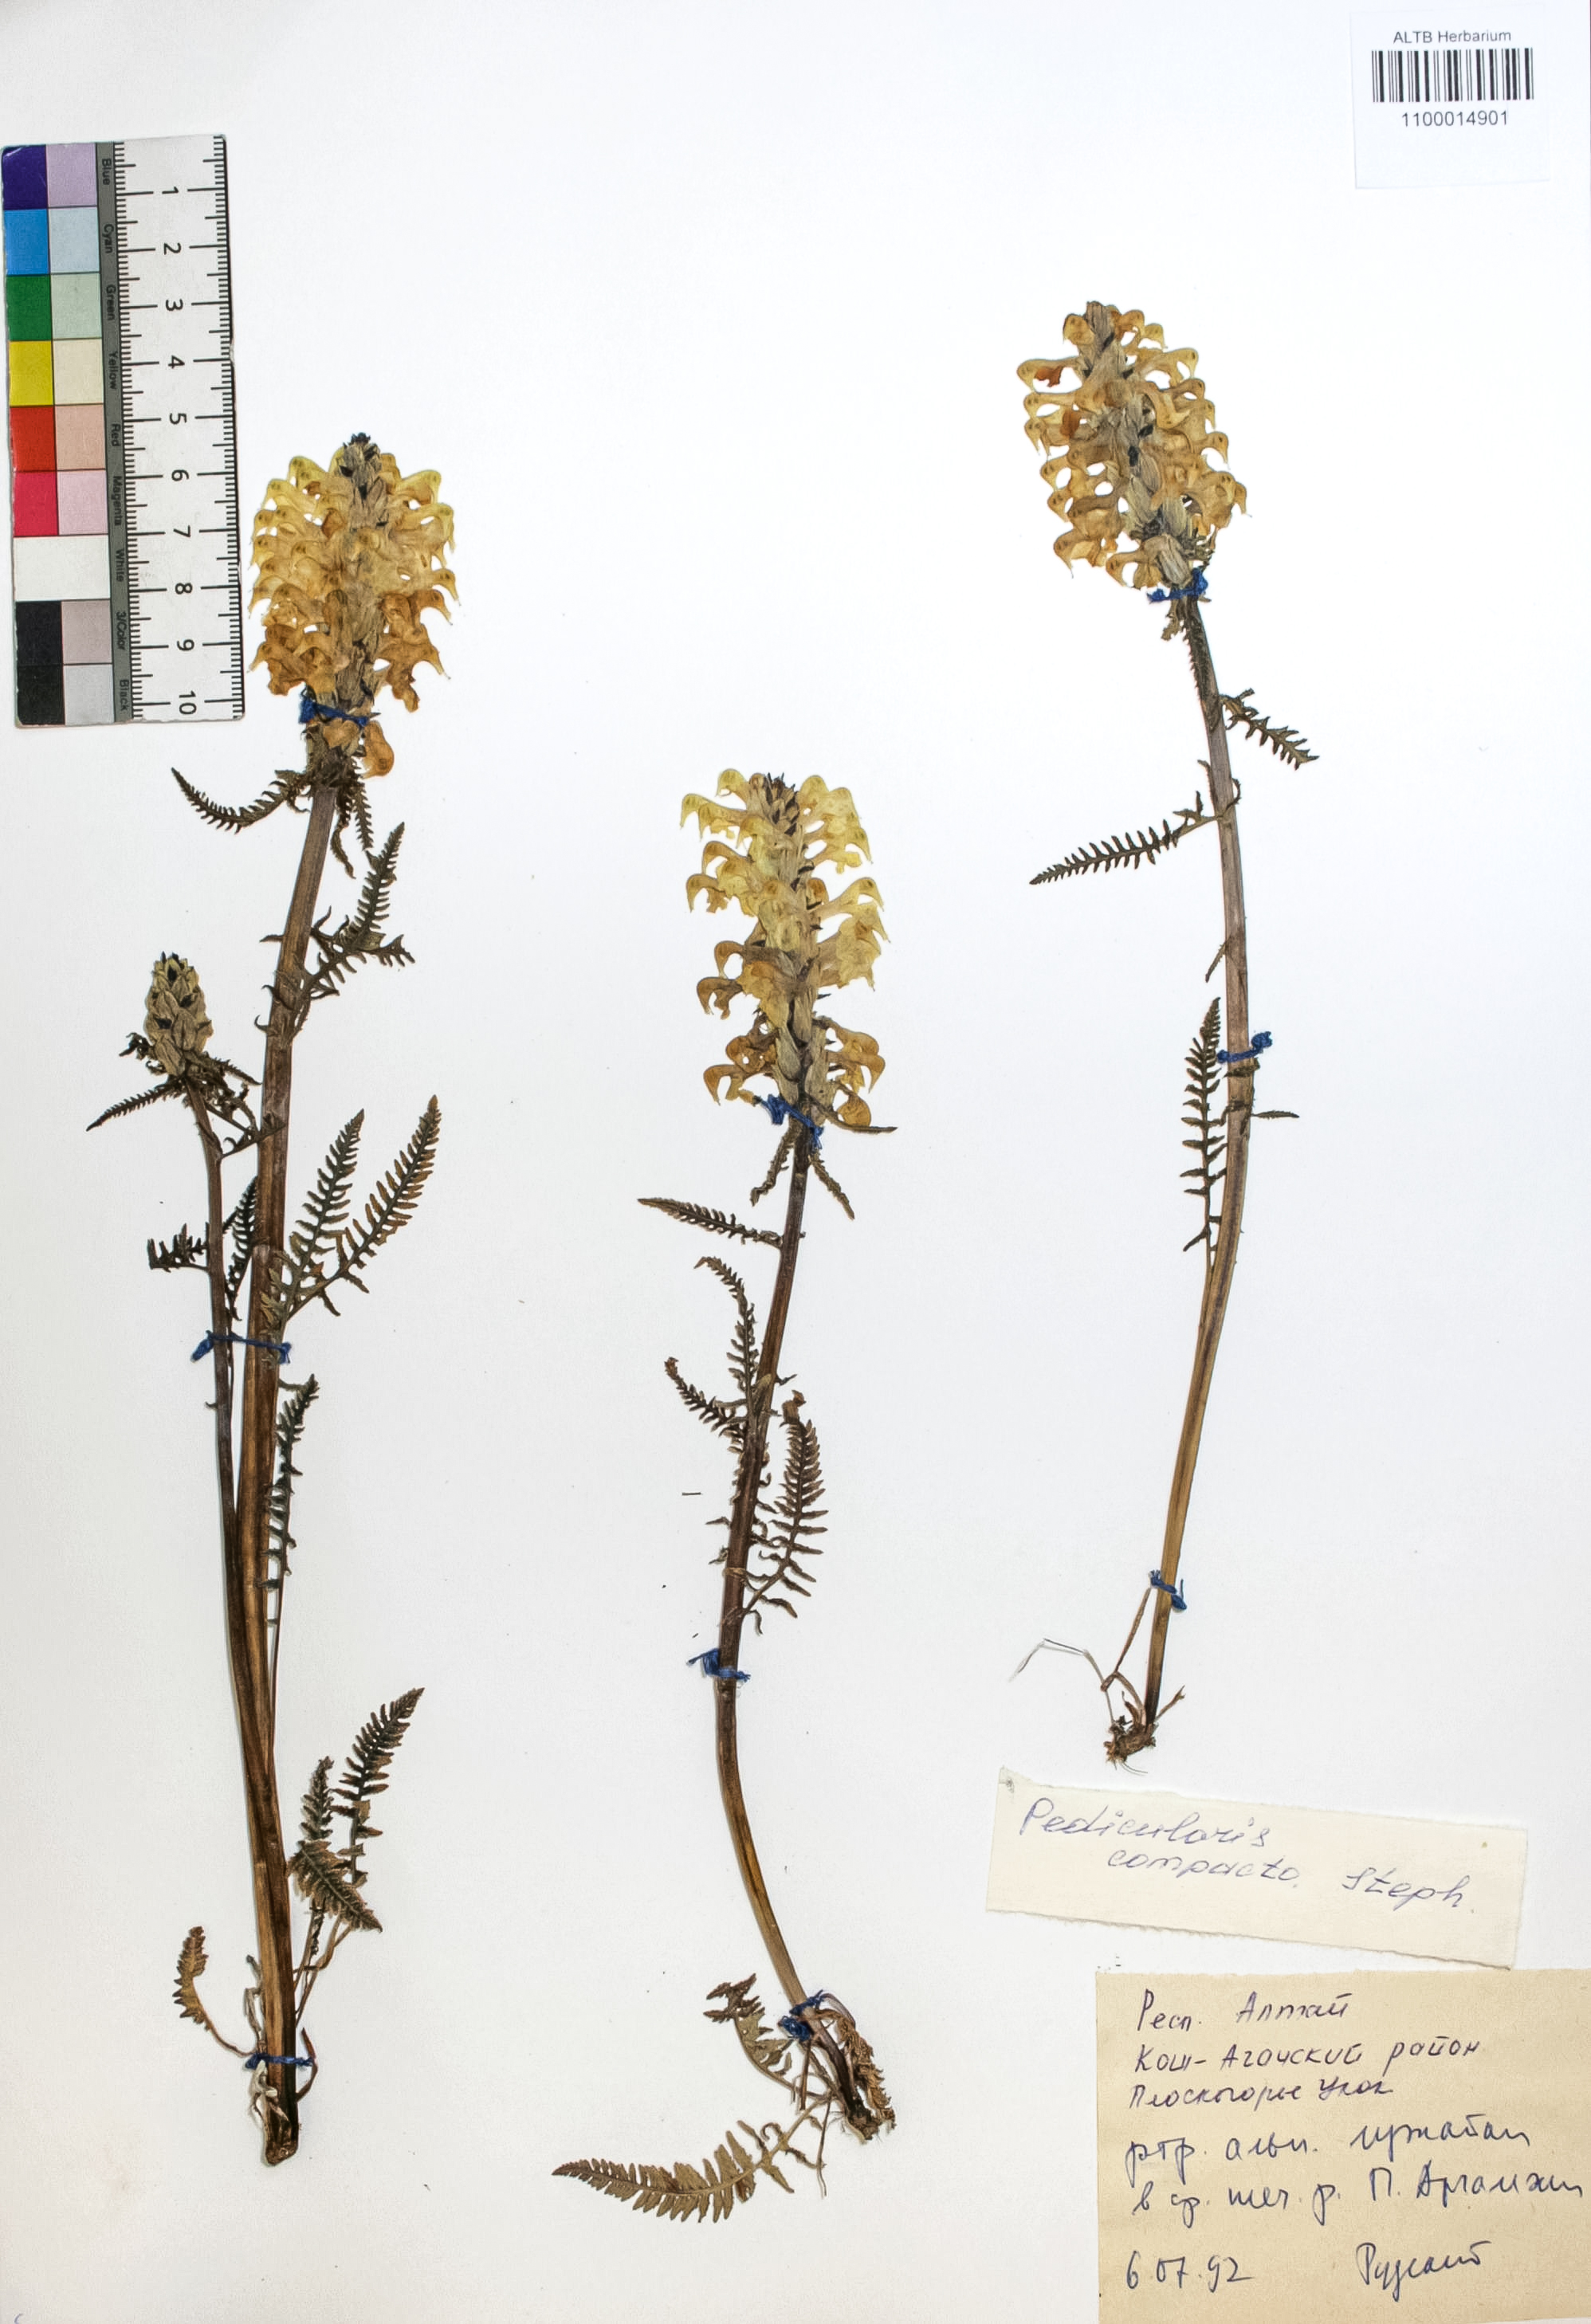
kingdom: Plantae
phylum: Tracheophyta
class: Magnoliopsida
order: Lamiales
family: Orobanchaceae
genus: Pedicularis
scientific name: Pedicularis compacta
